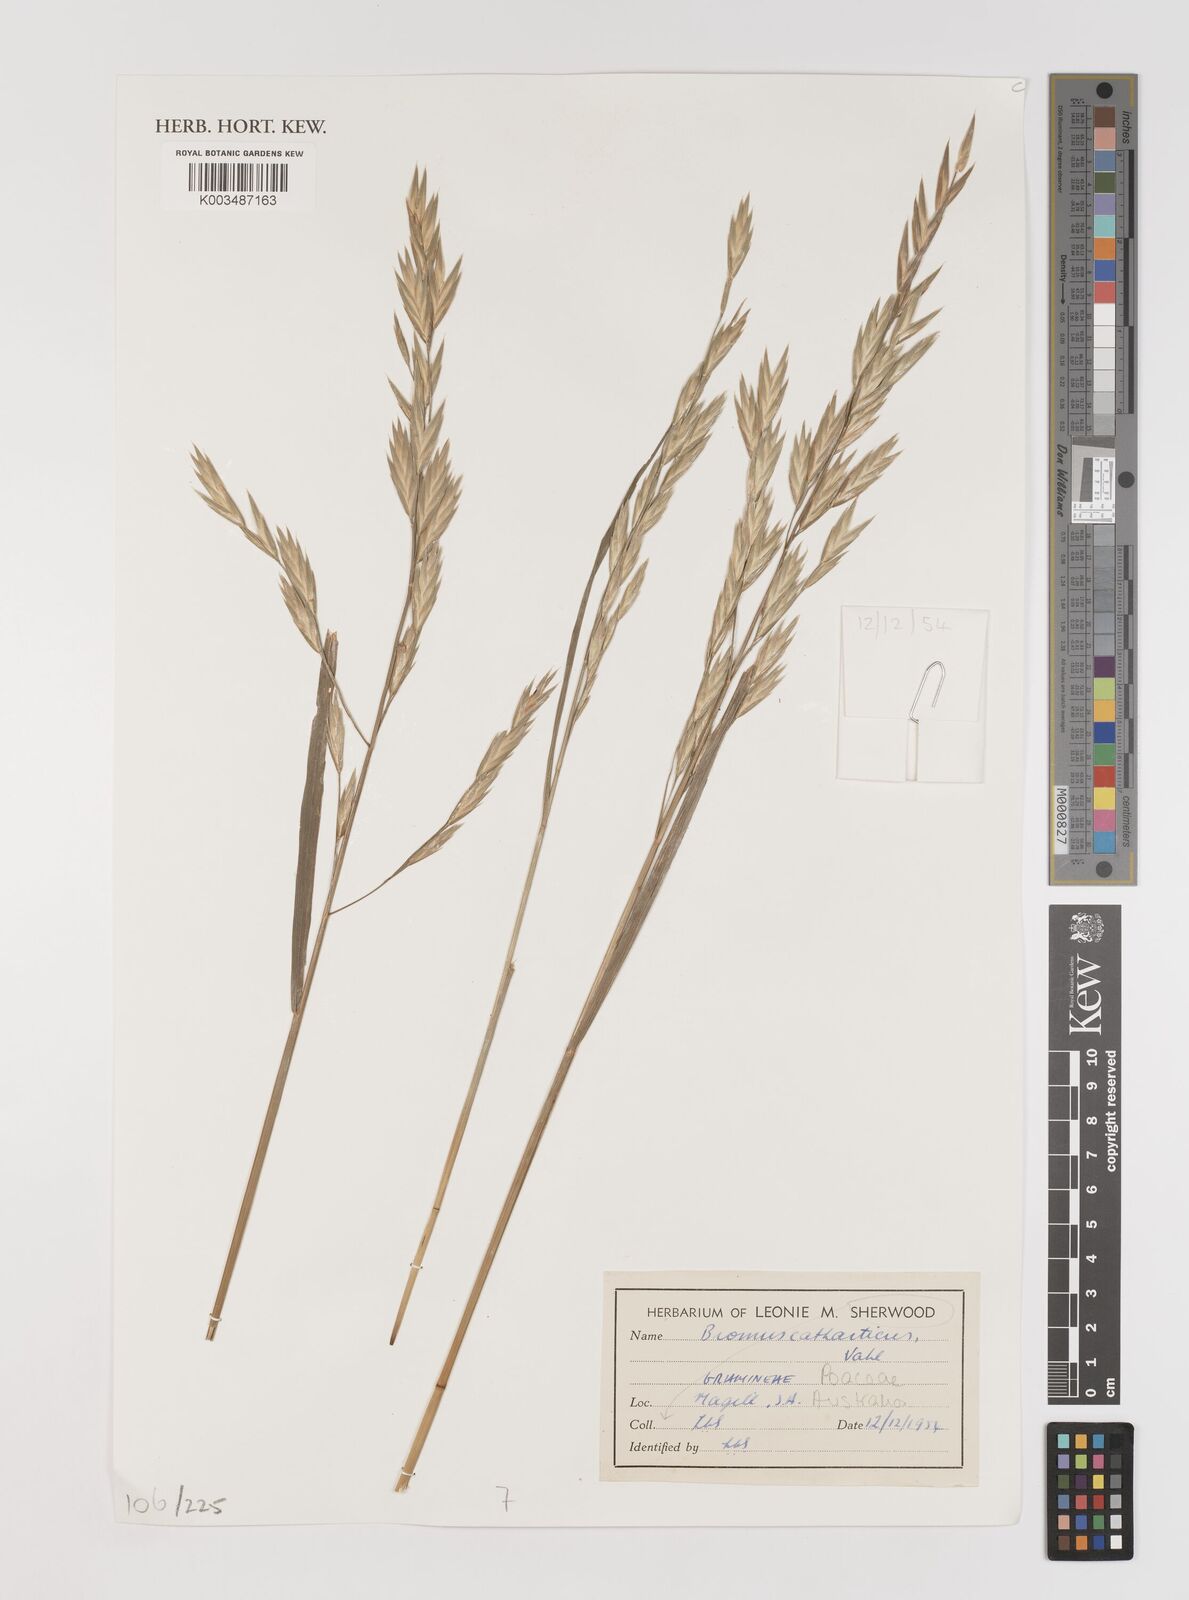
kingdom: Plantae
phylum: Tracheophyta
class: Liliopsida
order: Poales
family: Poaceae
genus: Bromus
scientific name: Bromus catharticus
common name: Rescuegrass
